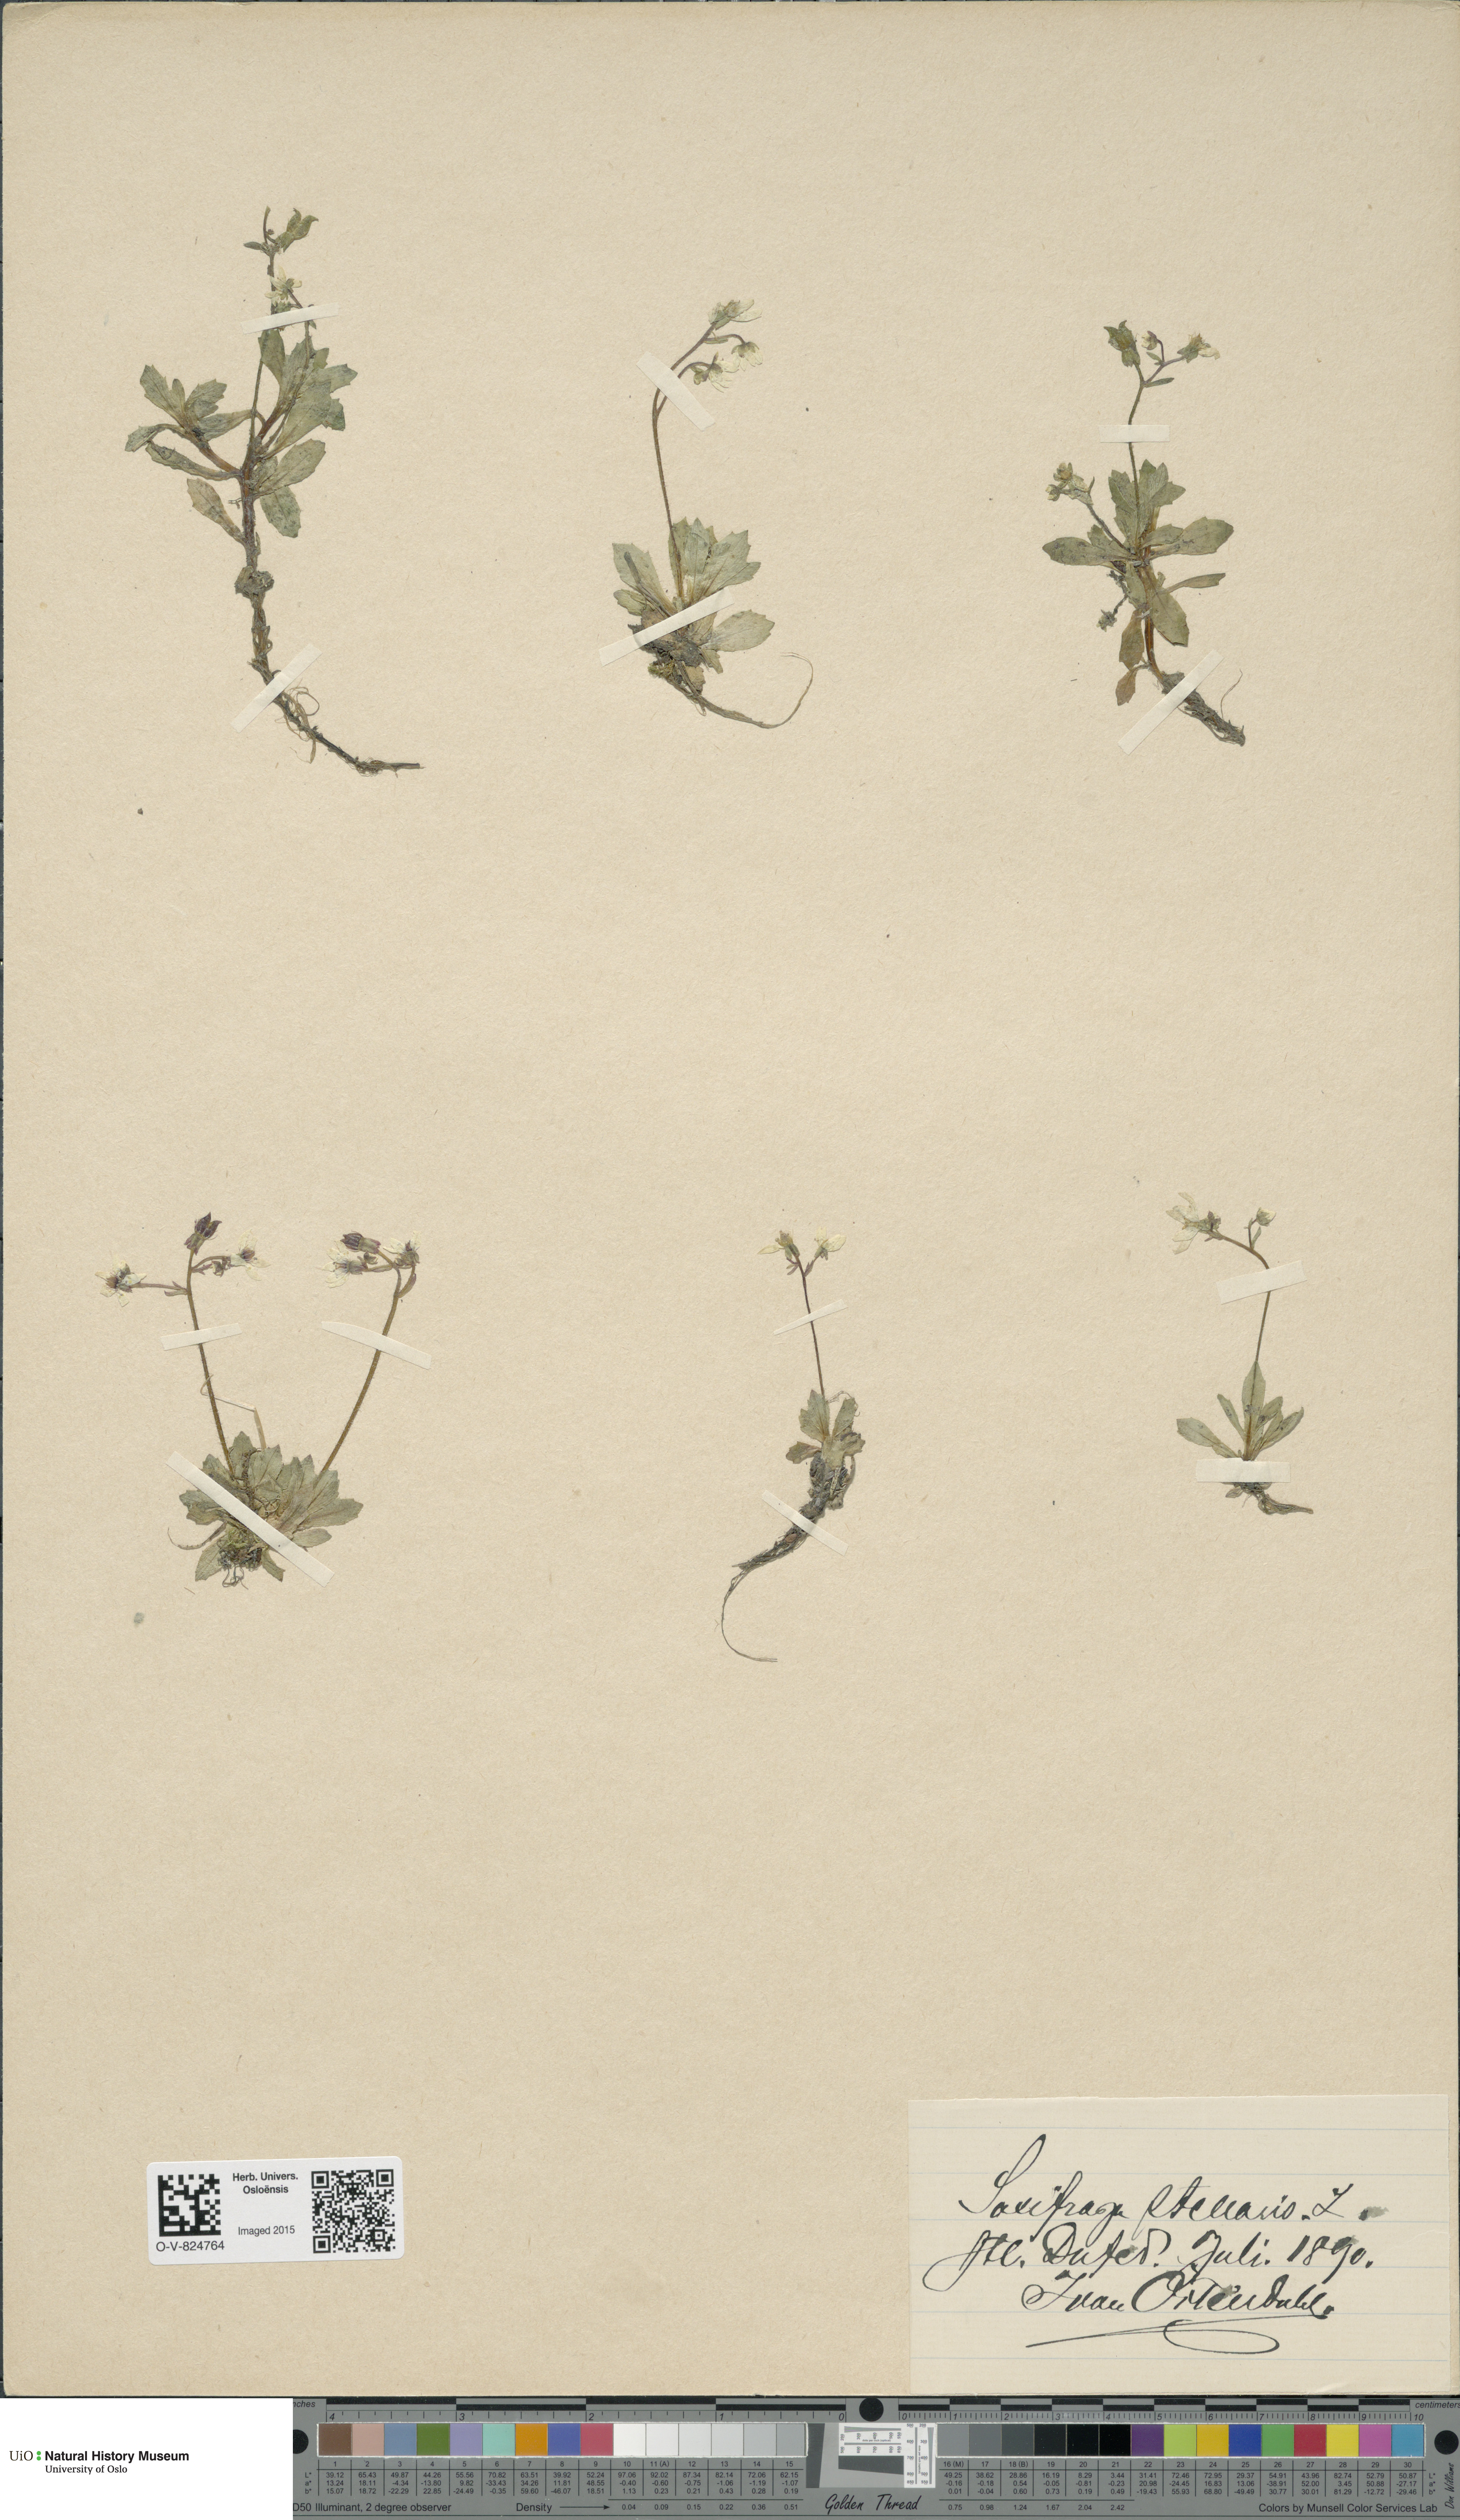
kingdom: Plantae
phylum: Tracheophyta
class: Magnoliopsida
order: Saxifragales
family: Saxifragaceae
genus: Micranthes
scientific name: Micranthes stellaris
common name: Starry saxifrage
